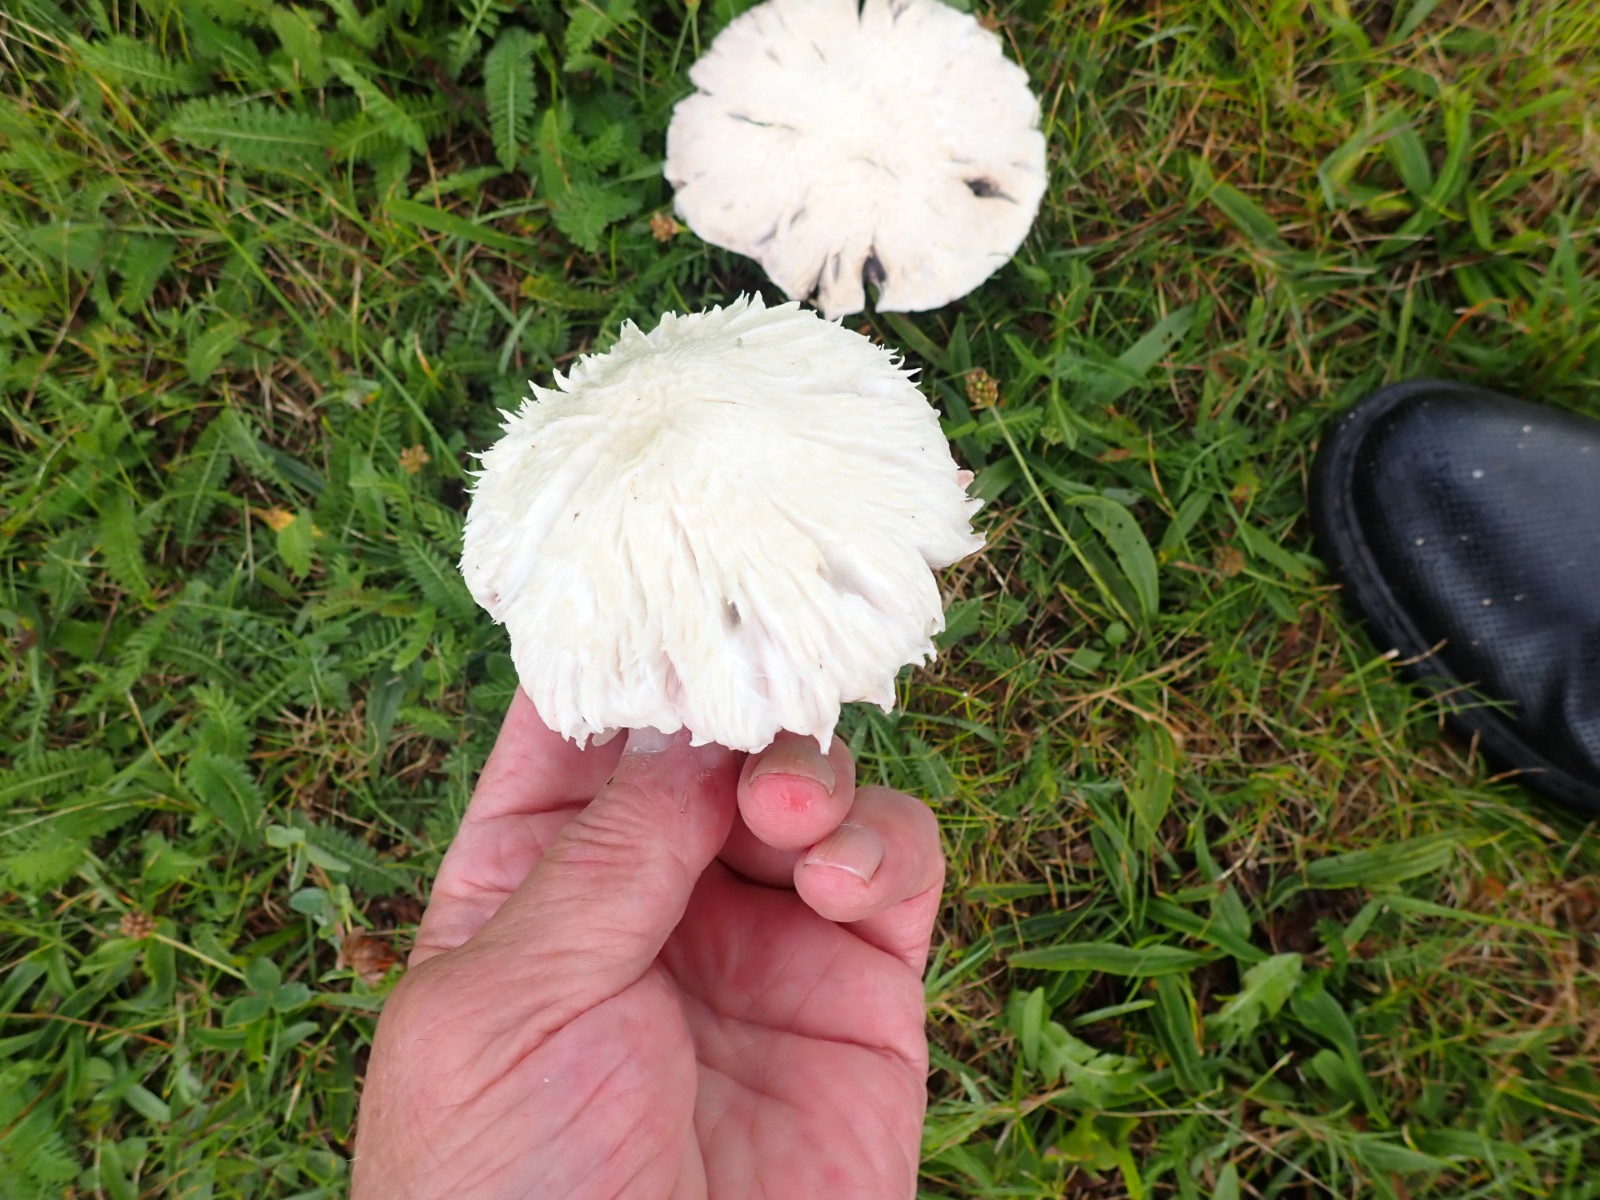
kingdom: Fungi
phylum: Basidiomycota
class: Agaricomycetes
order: Agaricales
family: Agaricaceae
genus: Agaricus
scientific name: Agaricus campestris
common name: mark-champignon
